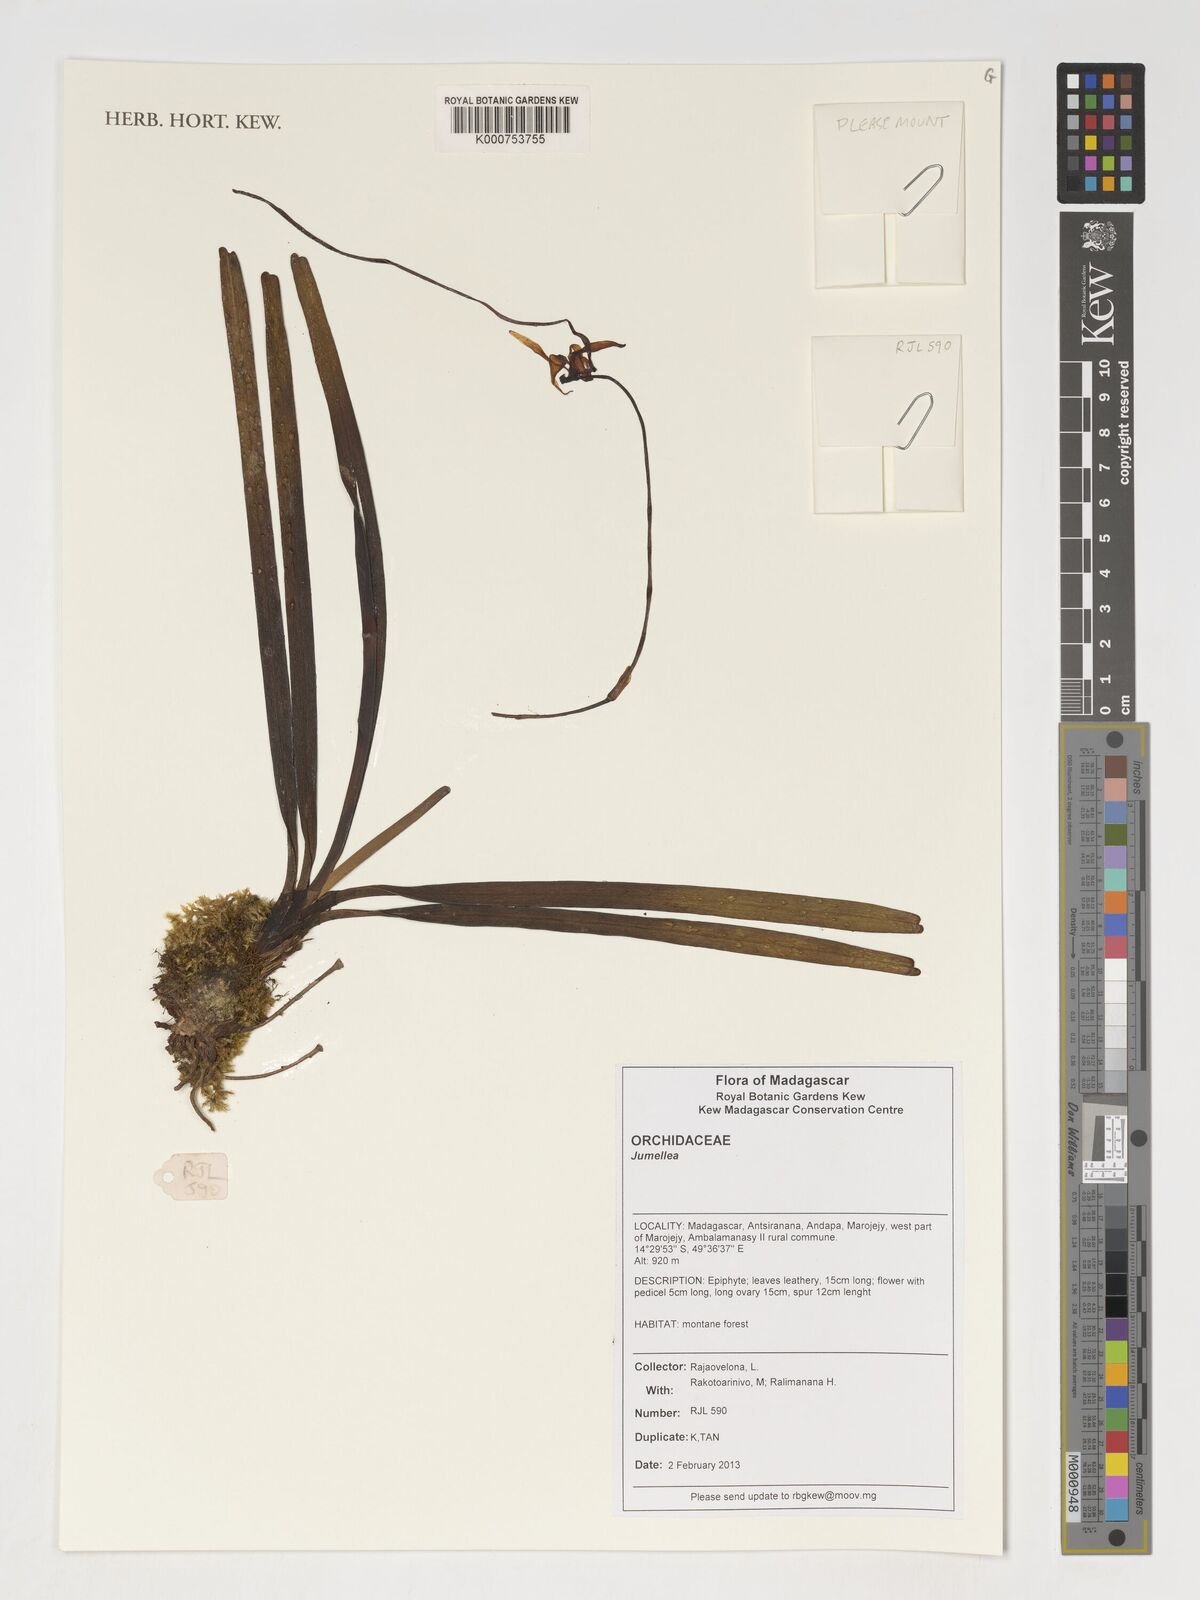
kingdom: Plantae
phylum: Tracheophyta
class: Liliopsida
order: Asparagales
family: Orchidaceae
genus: Jumellea
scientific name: Jumellea
